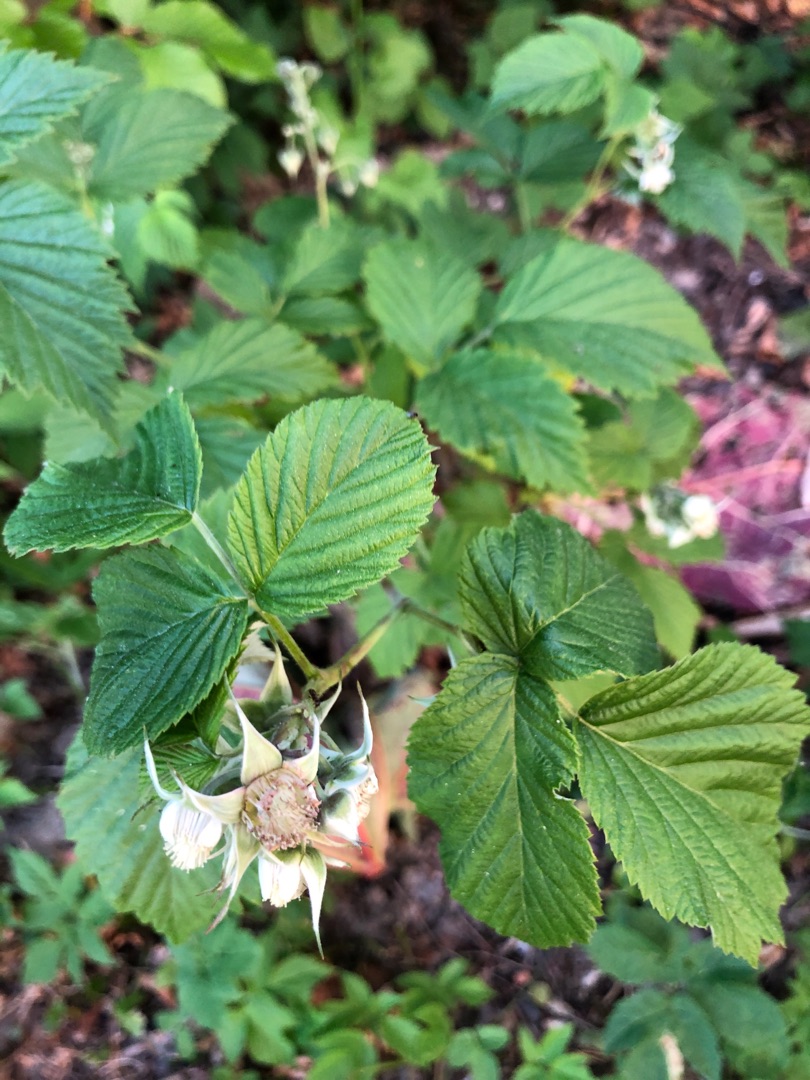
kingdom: Plantae
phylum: Tracheophyta
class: Magnoliopsida
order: Rosales
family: Rosaceae
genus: Rubus
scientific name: Rubus idaeus
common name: Hindbær
